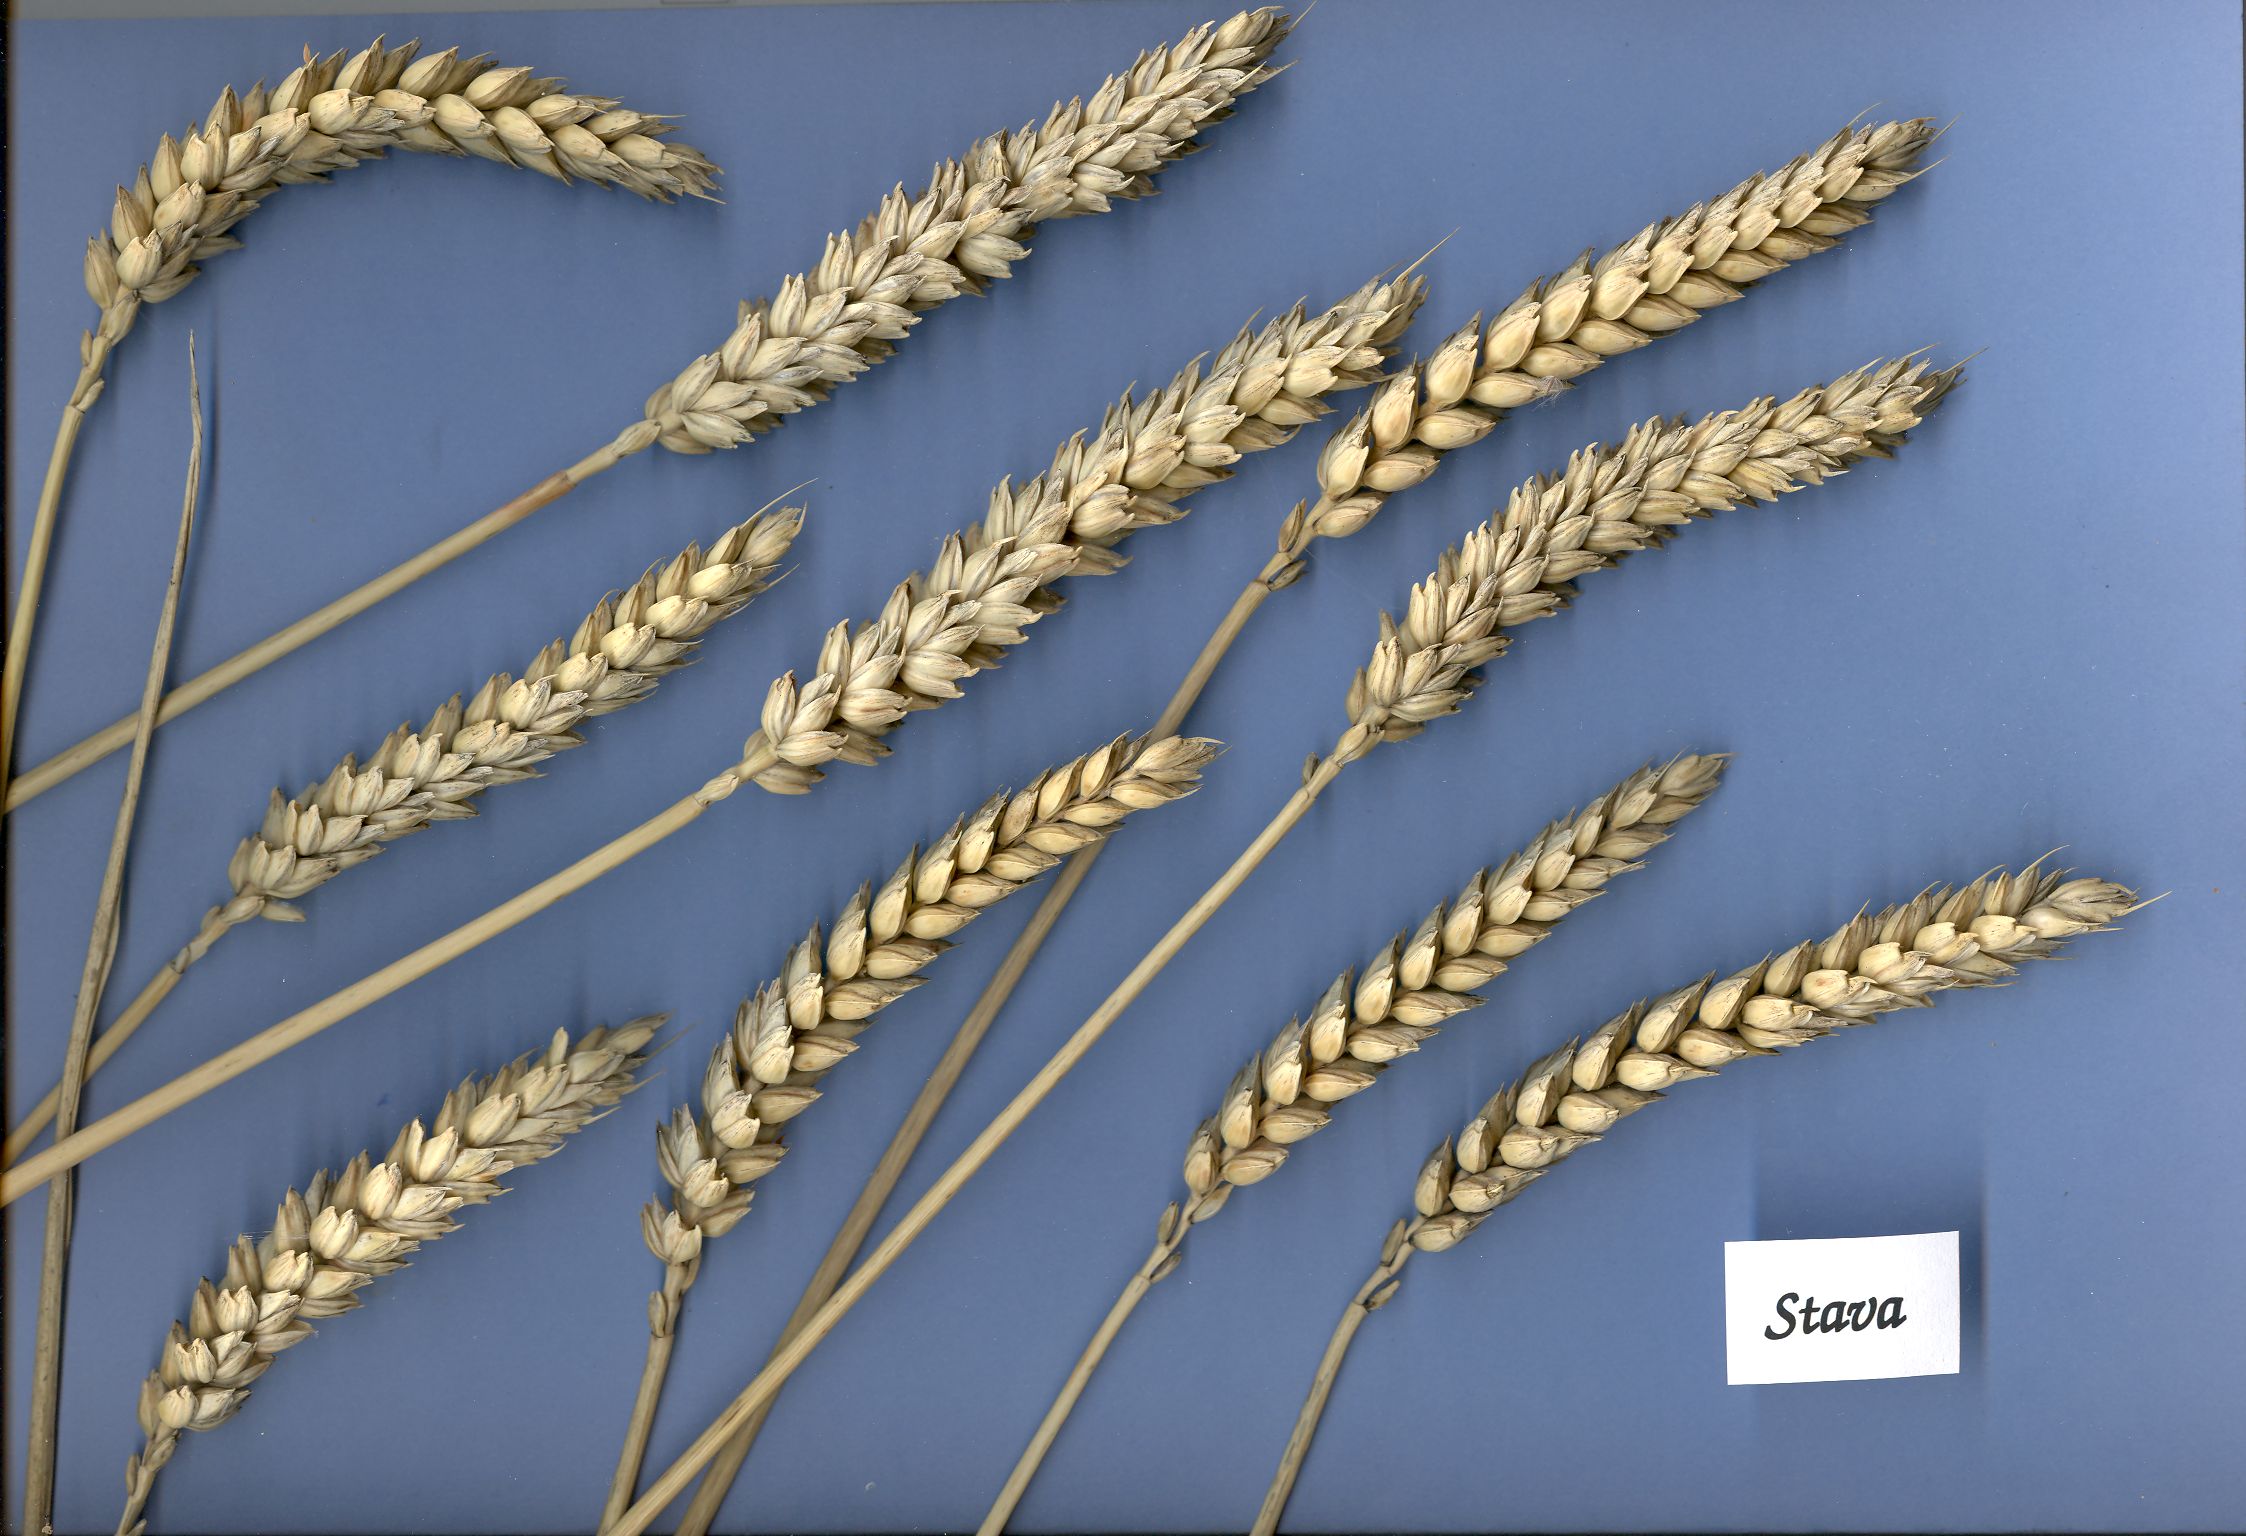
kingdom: Plantae
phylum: Tracheophyta
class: Liliopsida
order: Poales
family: Poaceae
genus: Triticum
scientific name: Triticum aestivum
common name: Common wheat
